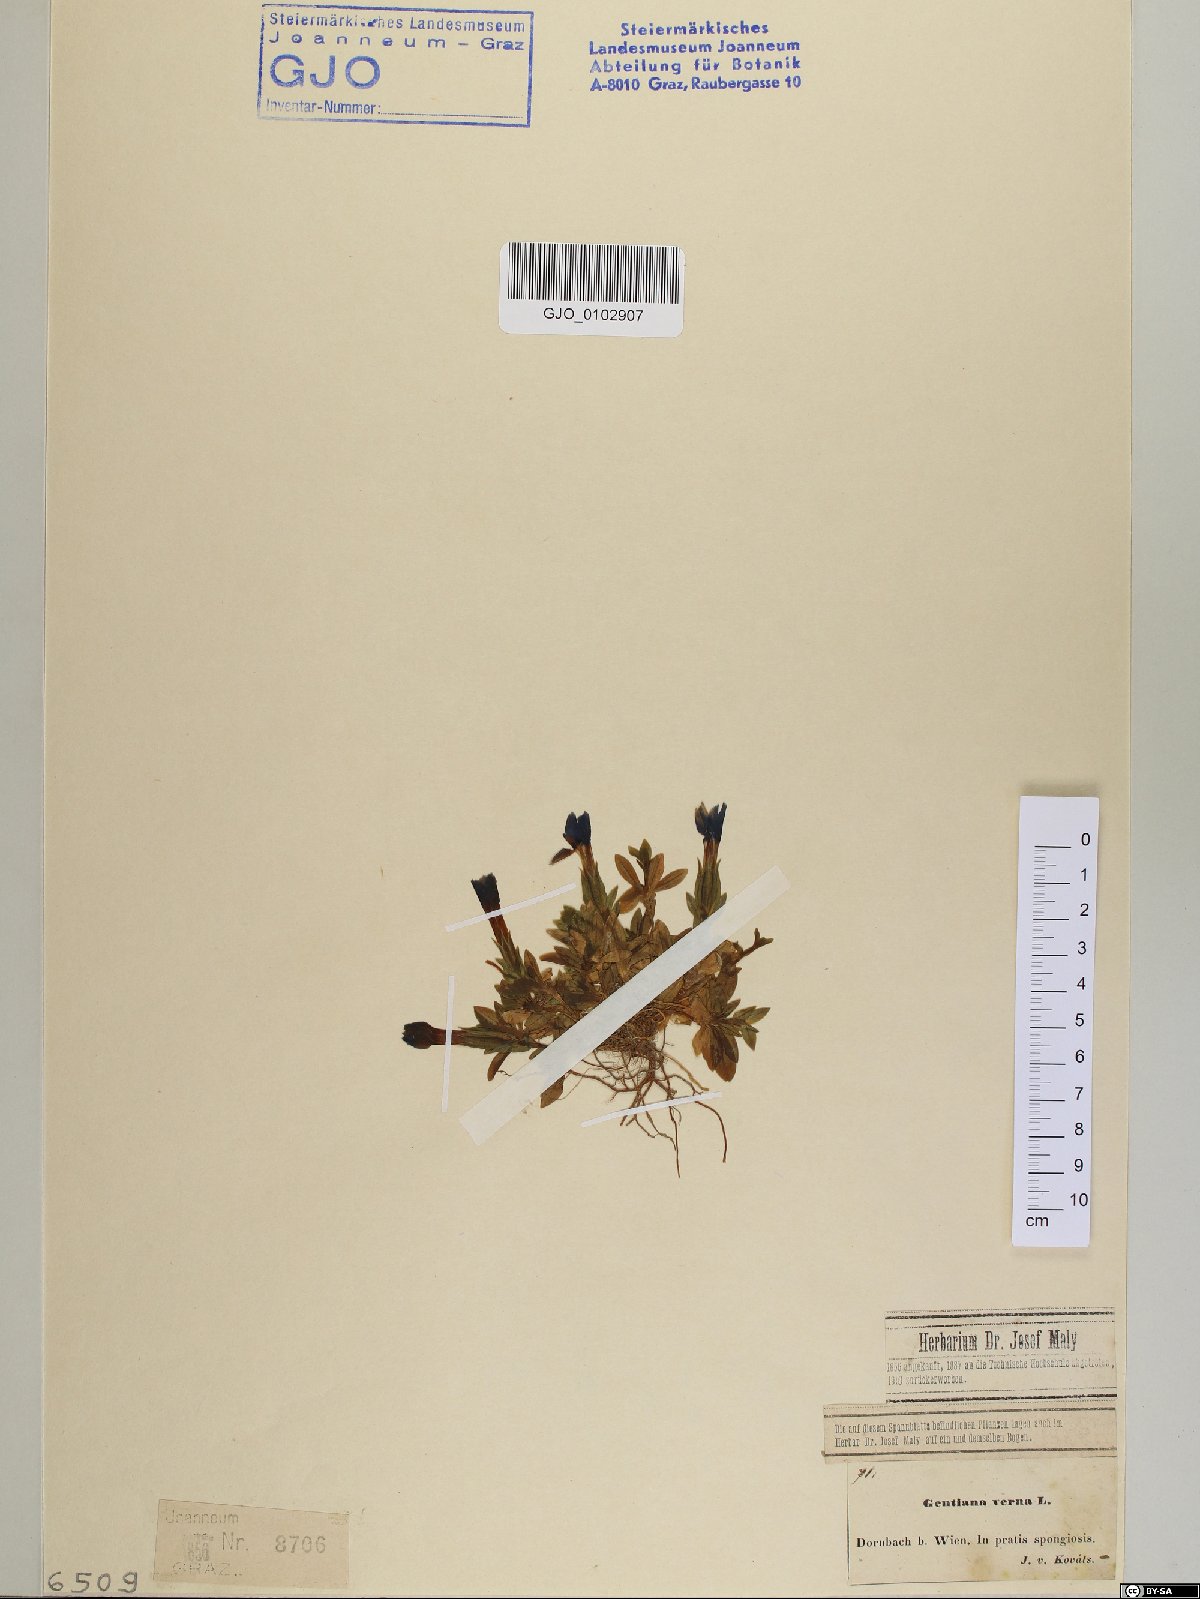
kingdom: Plantae
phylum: Tracheophyta
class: Magnoliopsida
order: Gentianales
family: Gentianaceae
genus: Gentiana
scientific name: Gentiana verna
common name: Spring gentian
